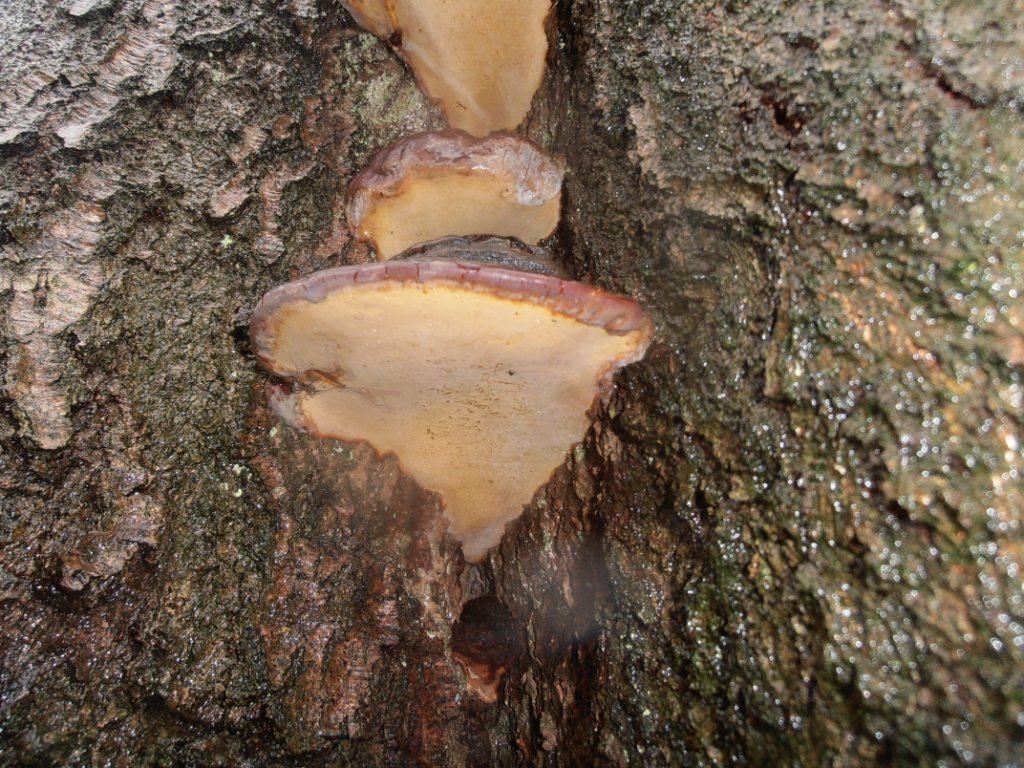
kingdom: Fungi
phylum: Basidiomycota
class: Agaricomycetes
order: Polyporales
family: Polyporaceae
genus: Ganoderma
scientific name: Ganoderma pfeifferi
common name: kobberrød lakporesvamp
